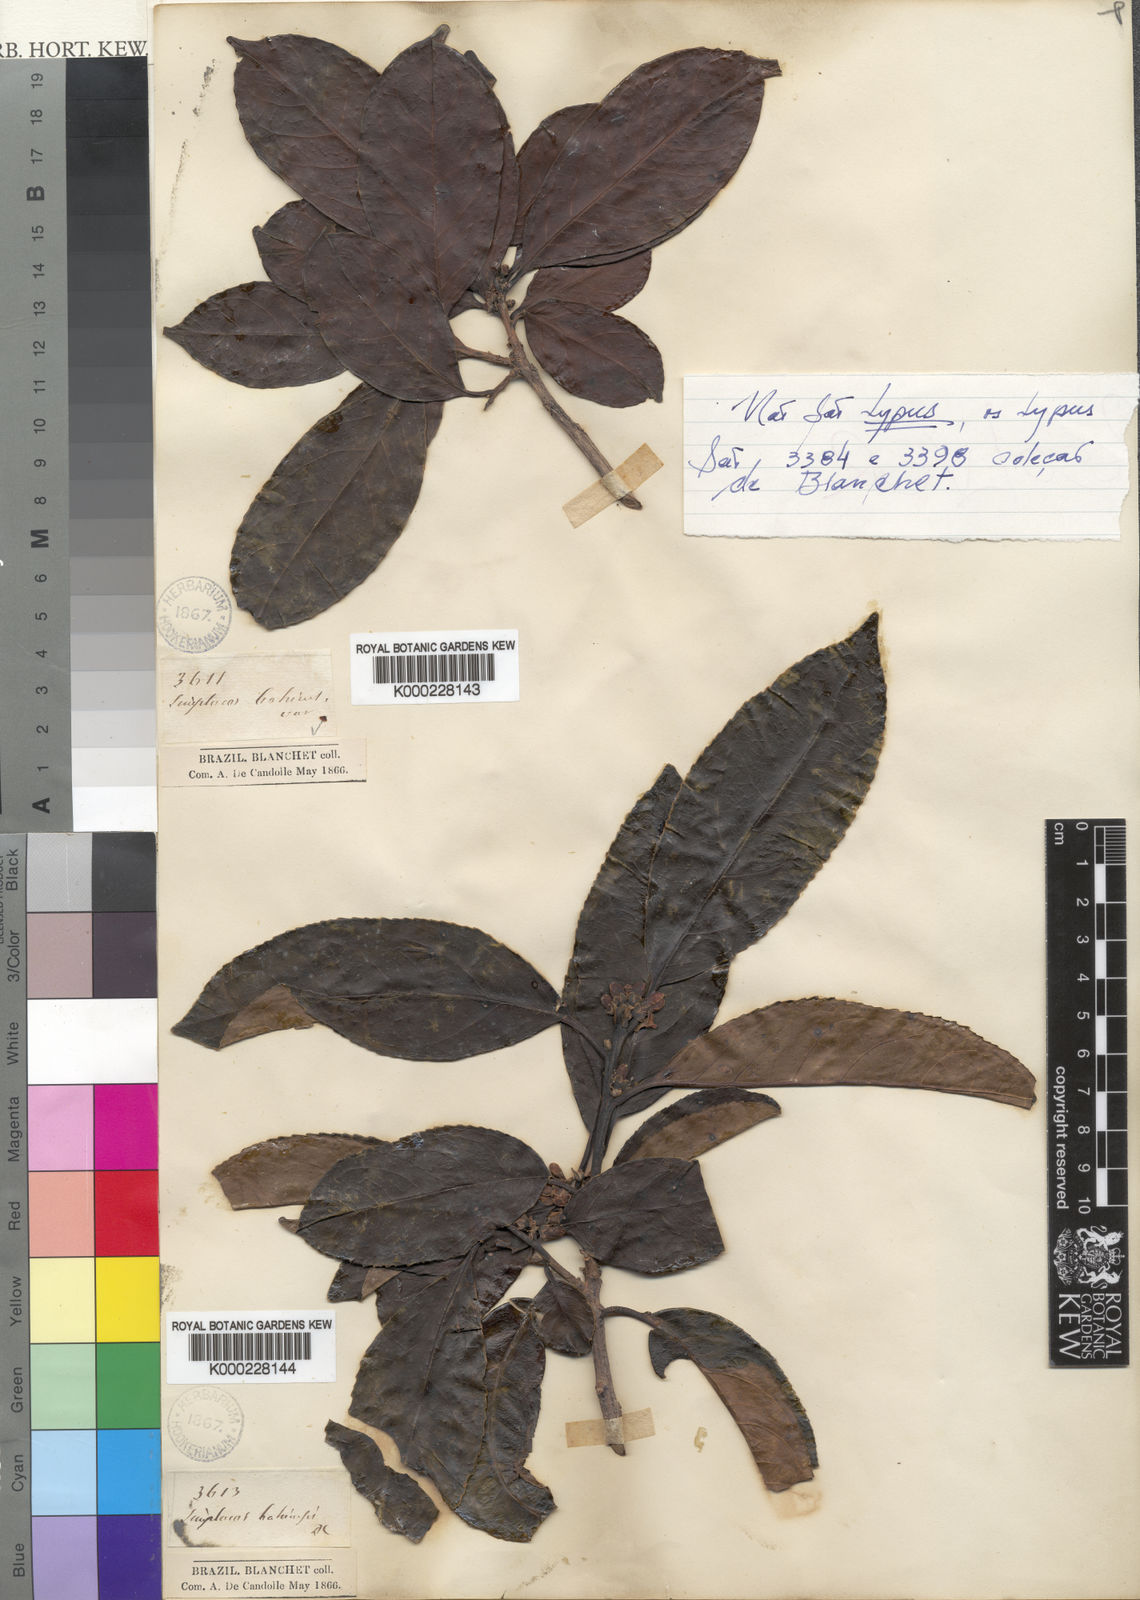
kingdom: Plantae
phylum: Tracheophyta
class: Magnoliopsida
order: Ericales
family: Symplocaceae
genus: Symplocos
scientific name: Symplocos nitens
